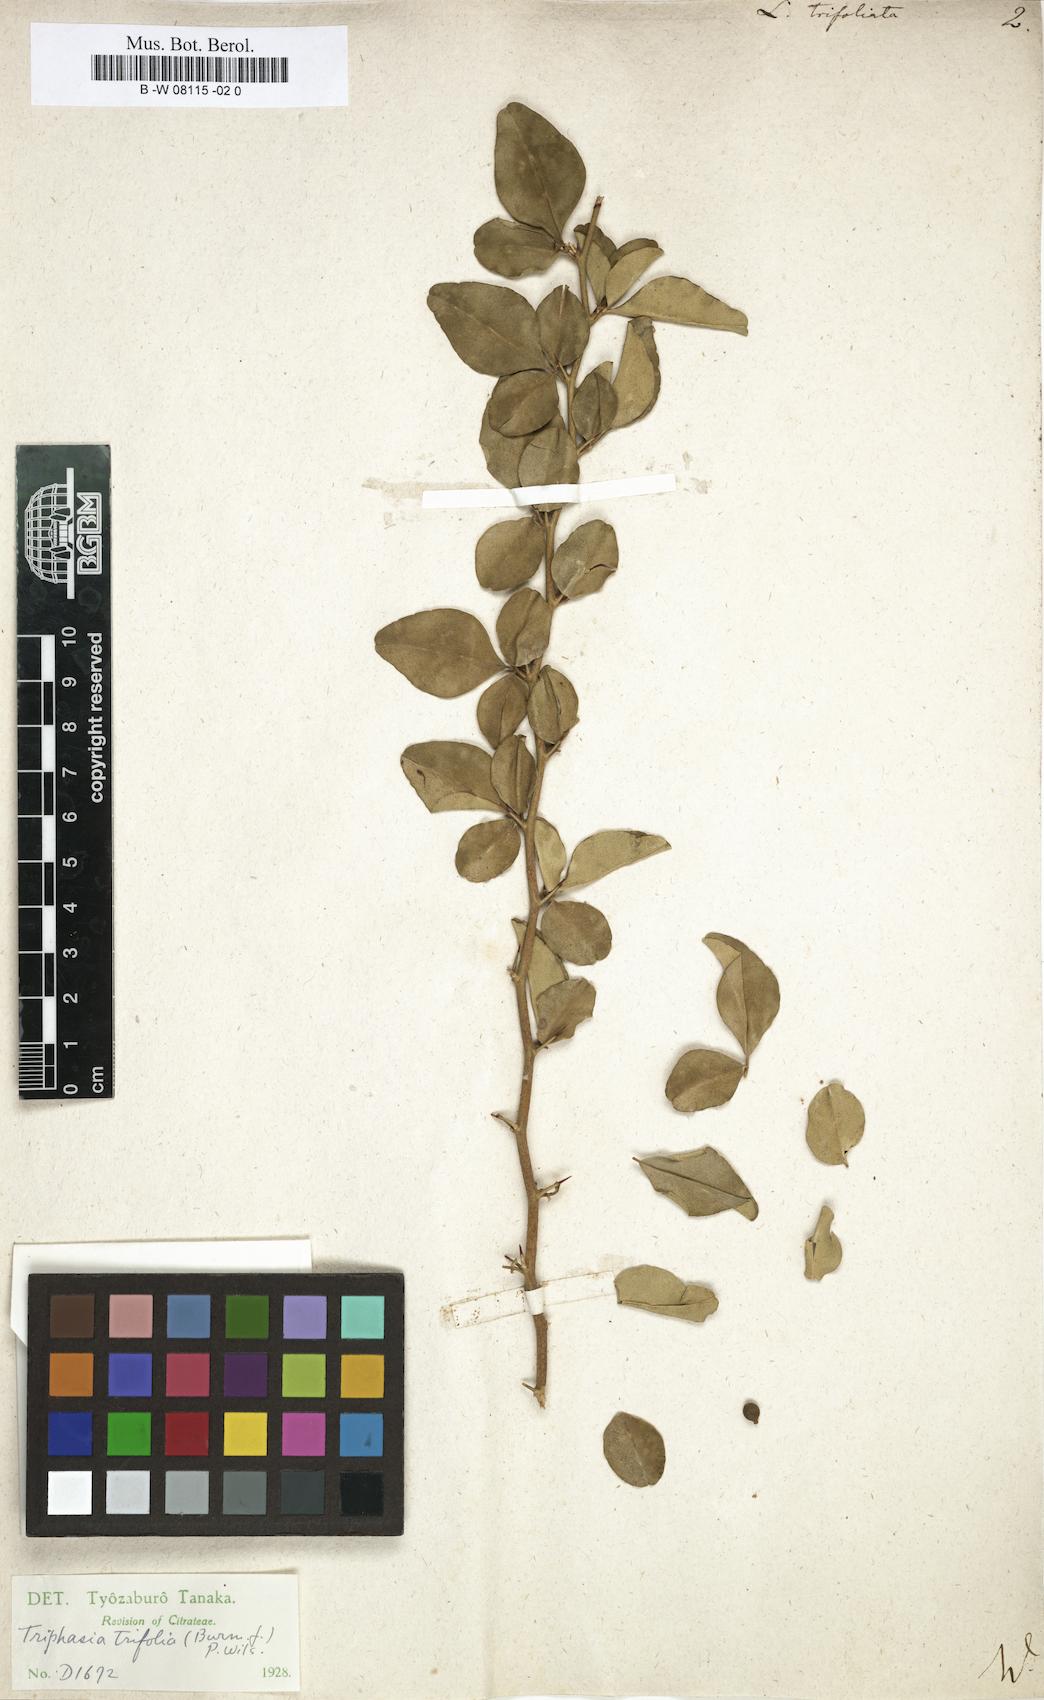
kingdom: Plantae
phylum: Tracheophyta
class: Magnoliopsida
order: Sapindales
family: Rutaceae
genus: Triphasia
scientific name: Triphasia trifolia
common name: Limeberry
